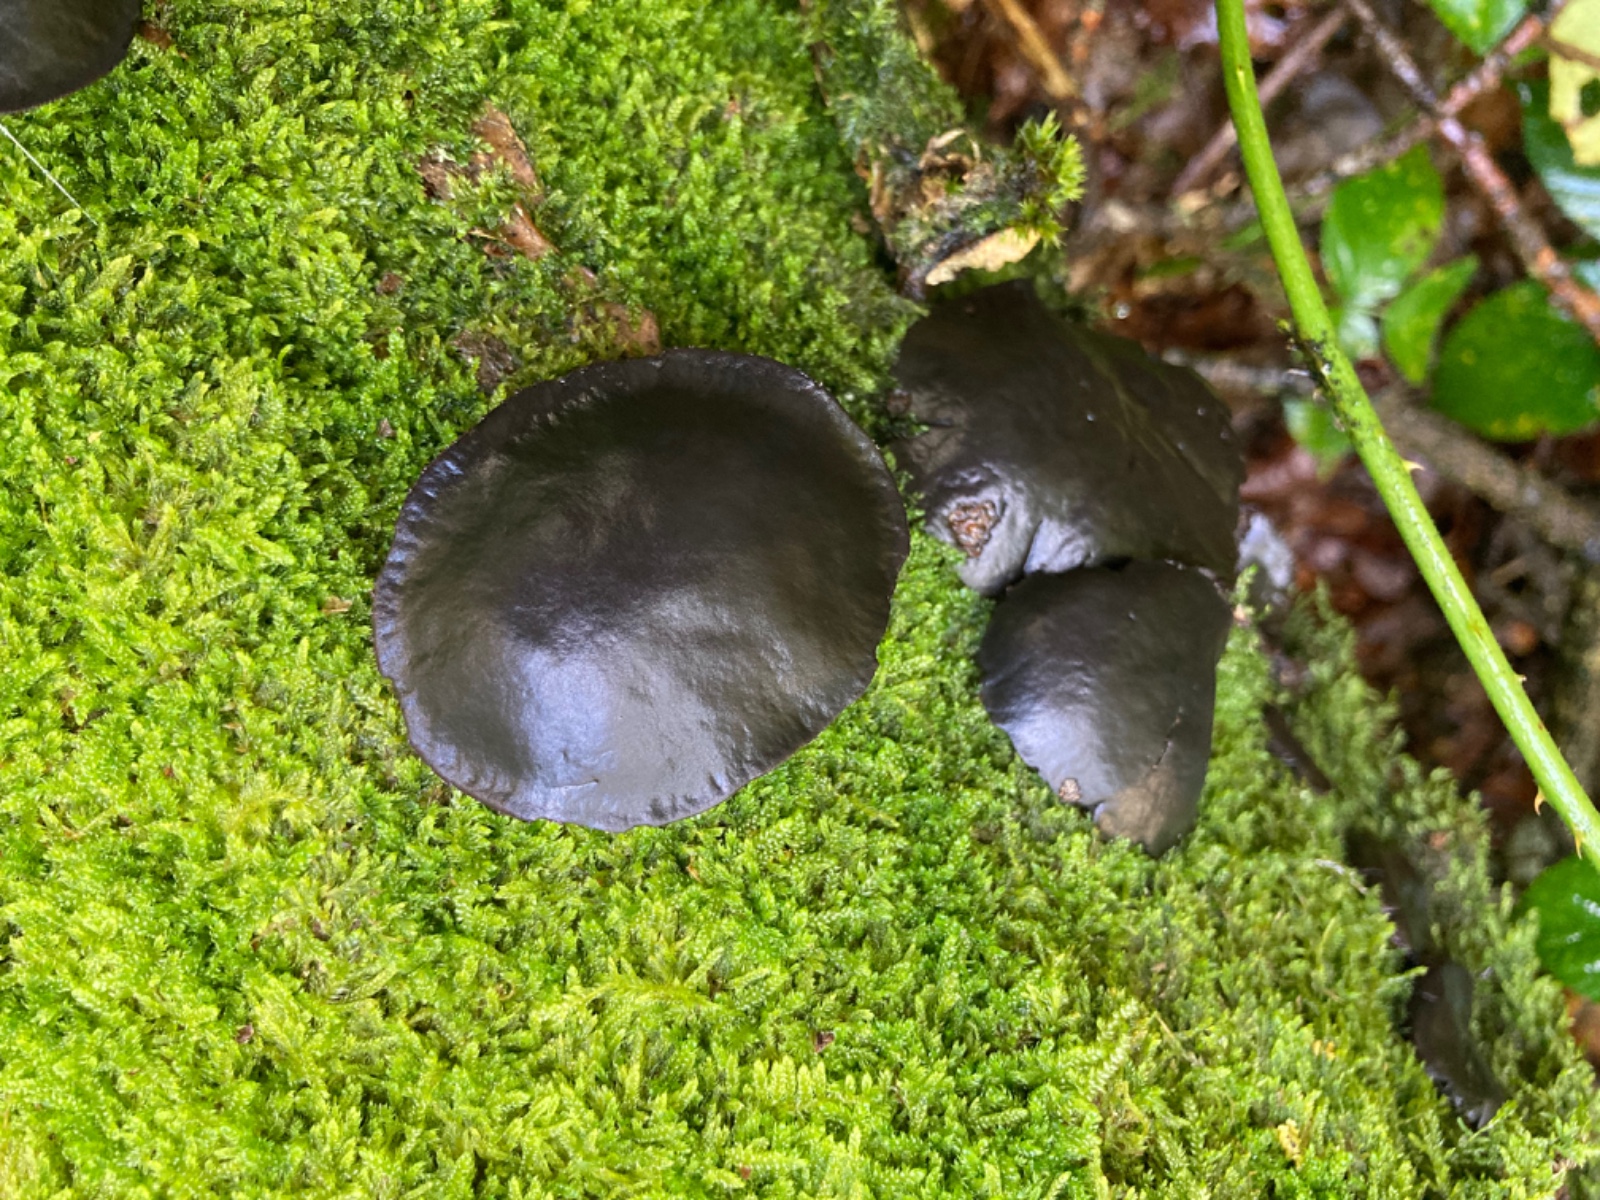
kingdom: Fungi
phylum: Ascomycota
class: Leotiomycetes
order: Phacidiales
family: Phacidiaceae
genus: Bulgaria
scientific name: Bulgaria inquinans
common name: afsmittende topsvamp
